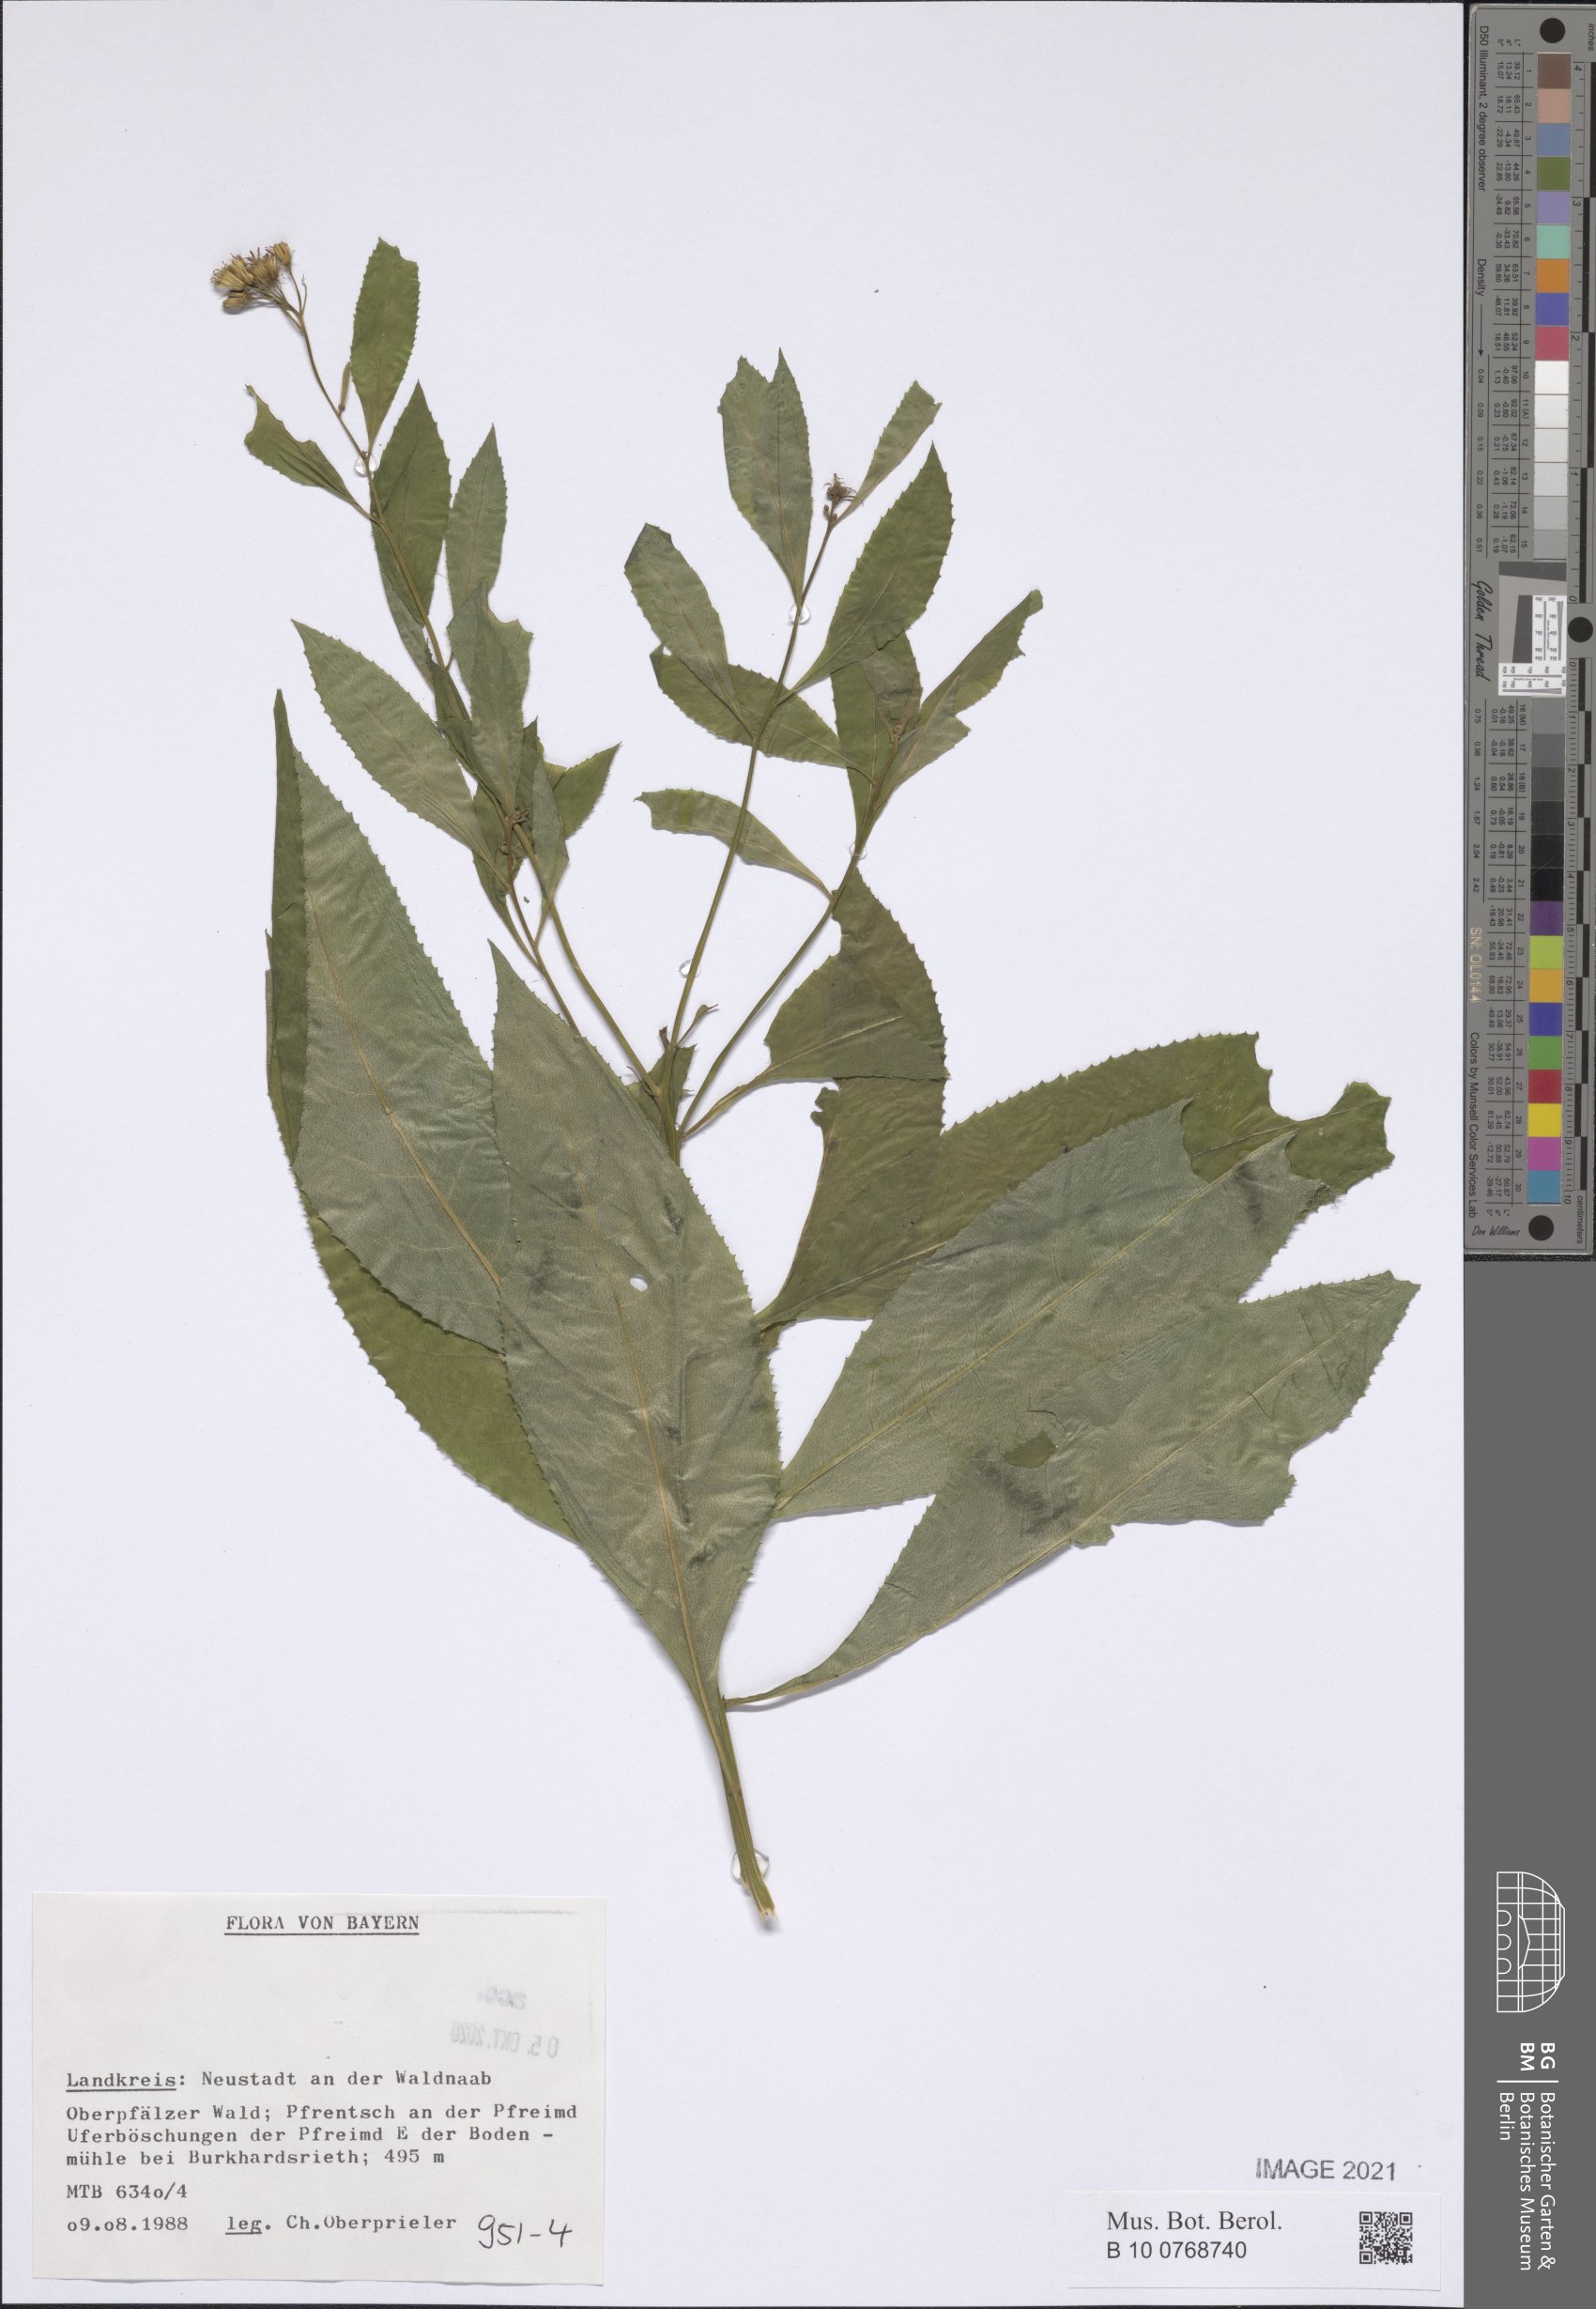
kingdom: Plantae
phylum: Tracheophyta
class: Magnoliopsida
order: Asterales
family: Asteraceae
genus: Senecio
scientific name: Senecio
